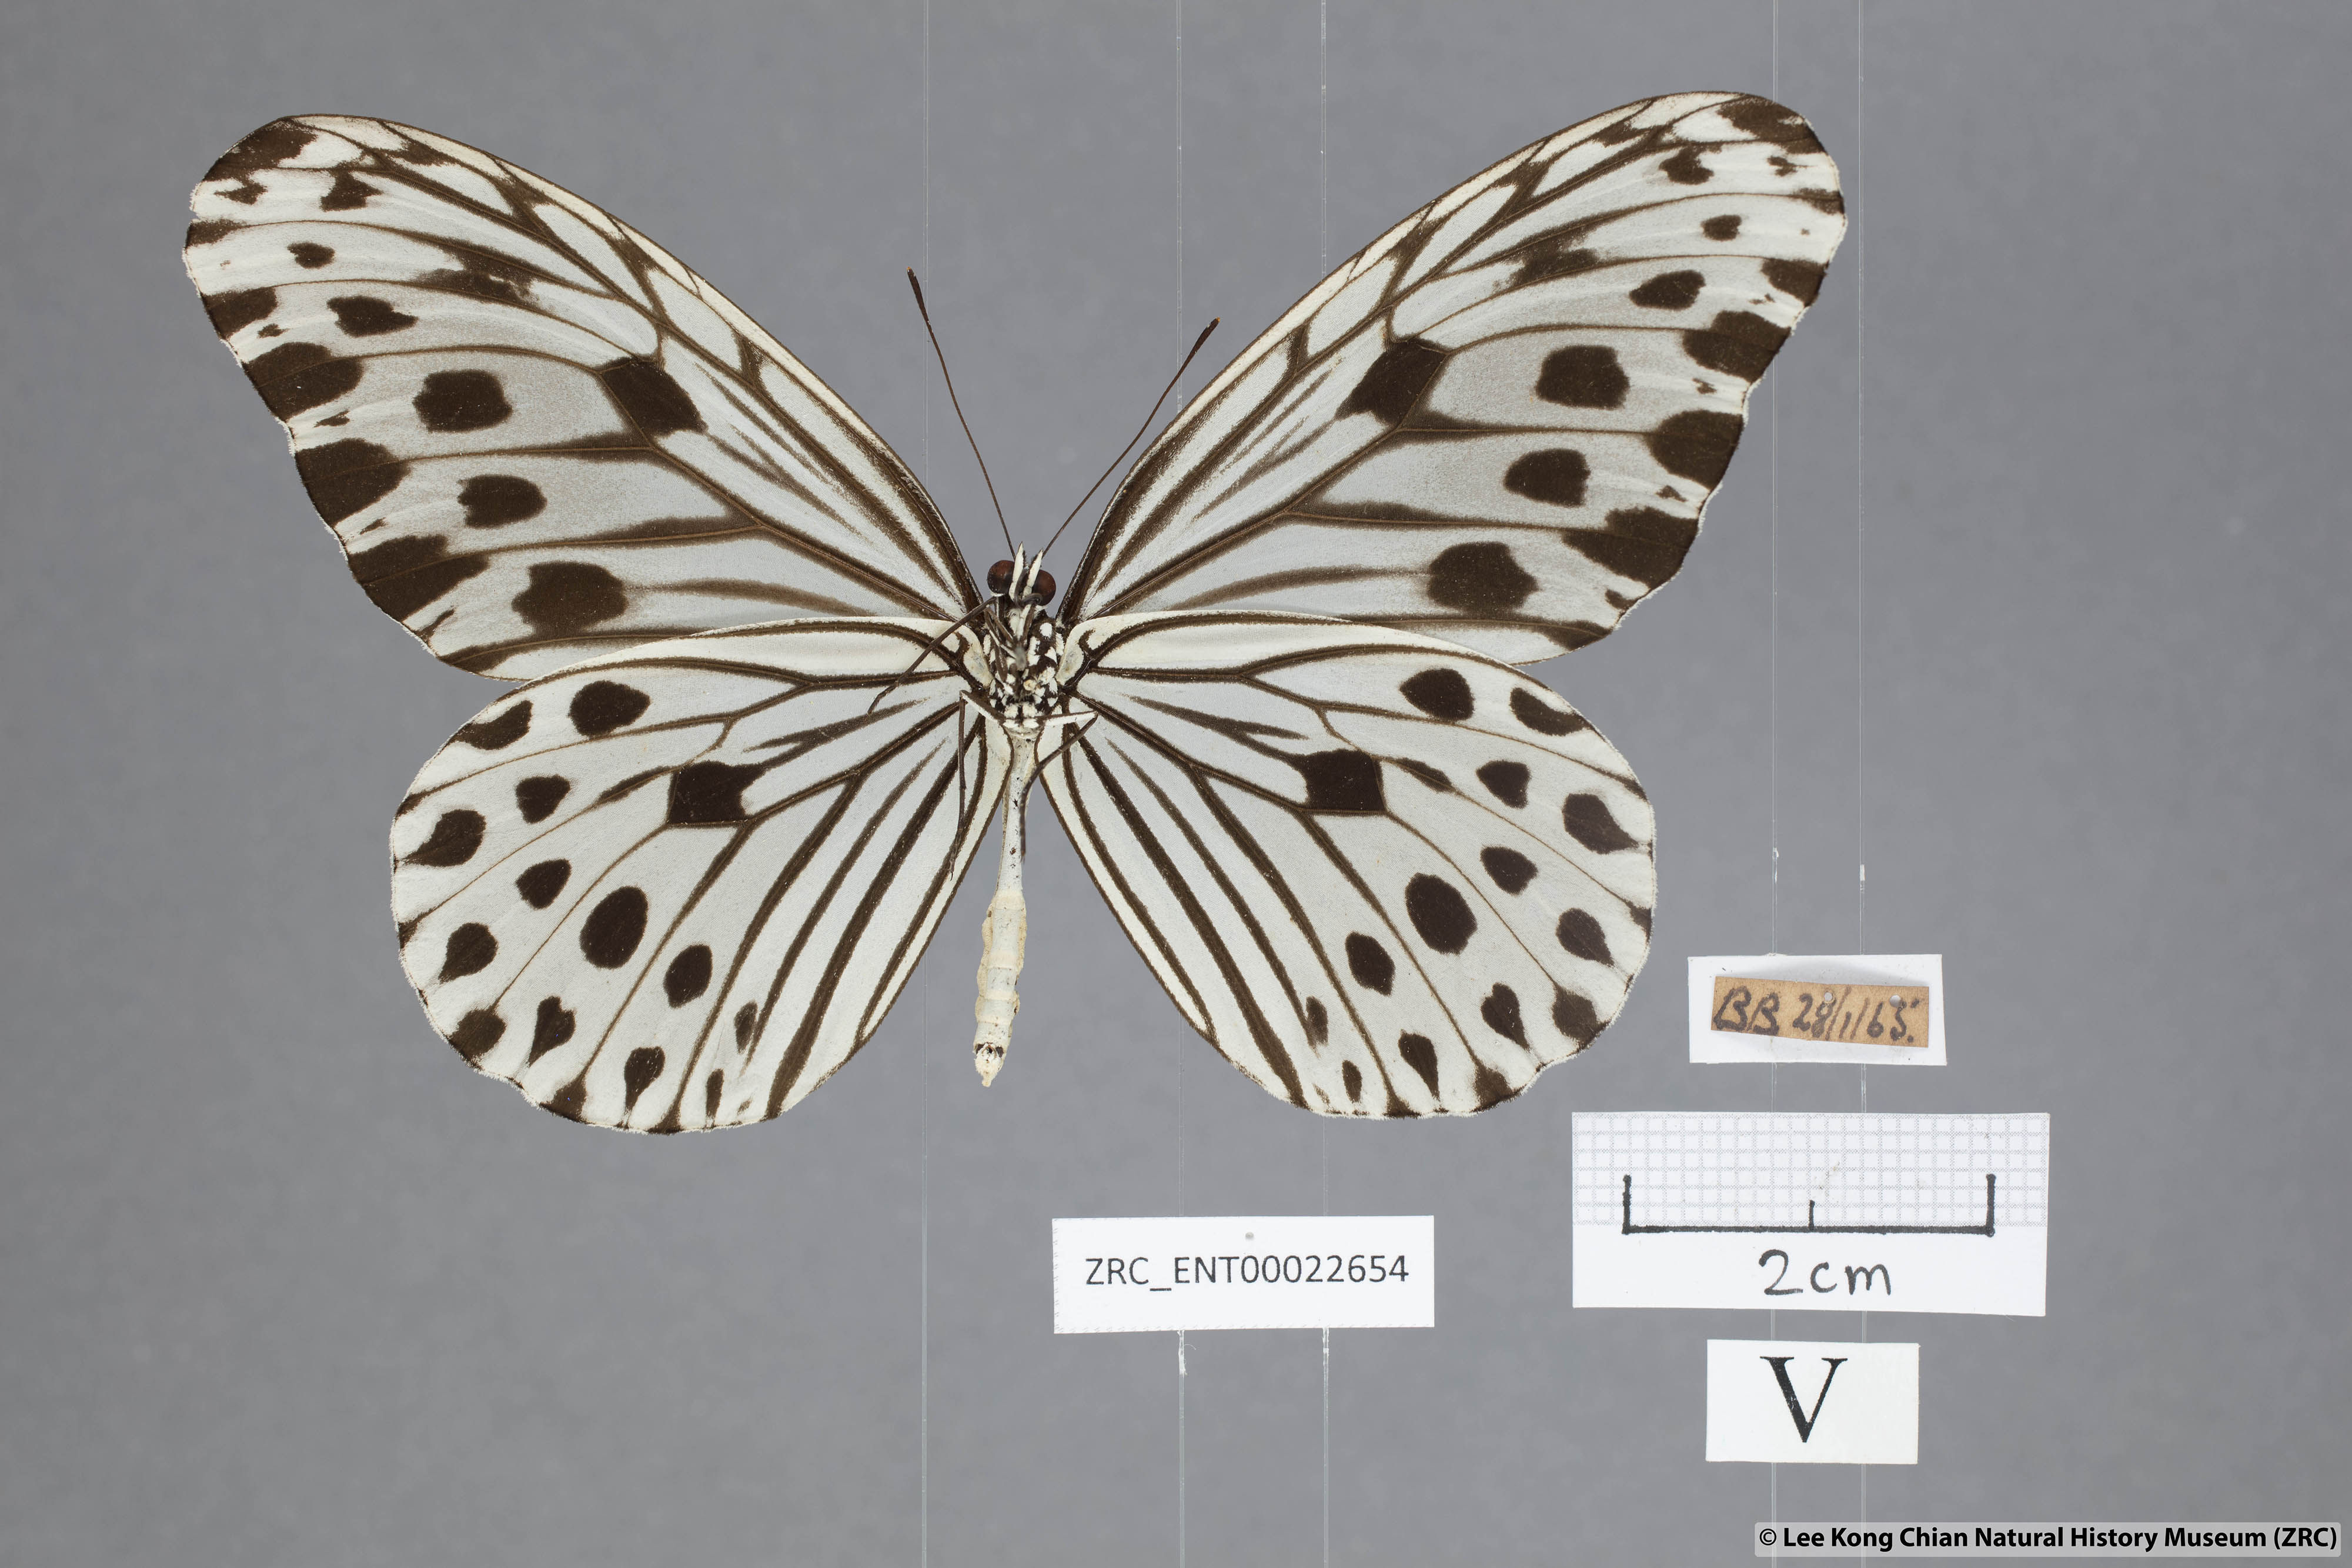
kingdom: Animalia
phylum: Arthropoda
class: Insecta
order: Lepidoptera
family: Nymphalidae
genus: Ideopsis
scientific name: Ideopsis gaura
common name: Smaller wood nymph
